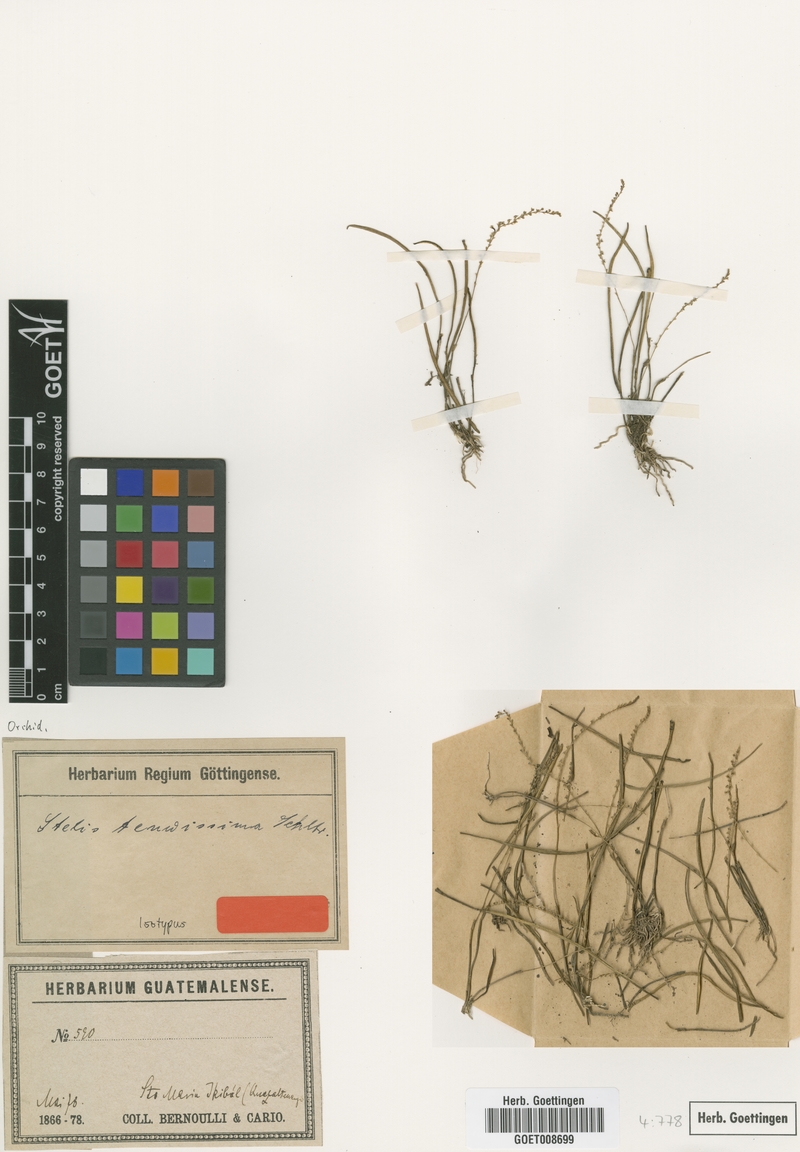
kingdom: Plantae
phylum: Tracheophyta
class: Liliopsida
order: Asparagales
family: Orchidaceae
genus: Stelis
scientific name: Stelis tenuissima
